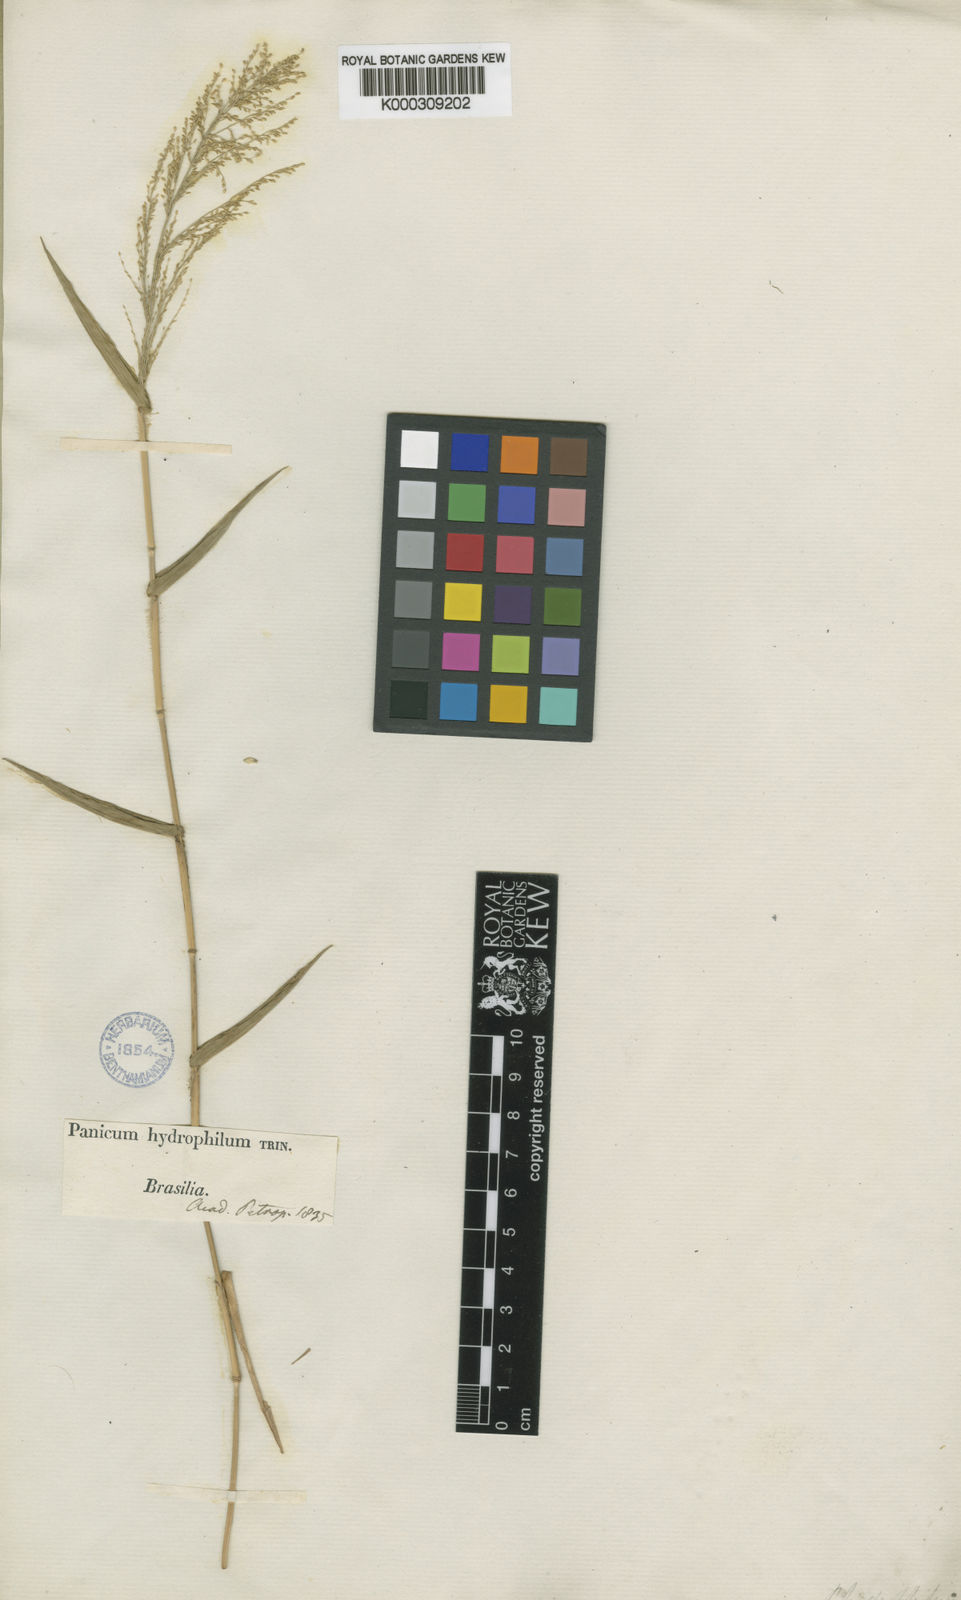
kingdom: Plantae
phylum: Tracheophyta
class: Liliopsida
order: Poales
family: Poaceae
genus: Rugoloa
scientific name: Rugoloa polygonata
